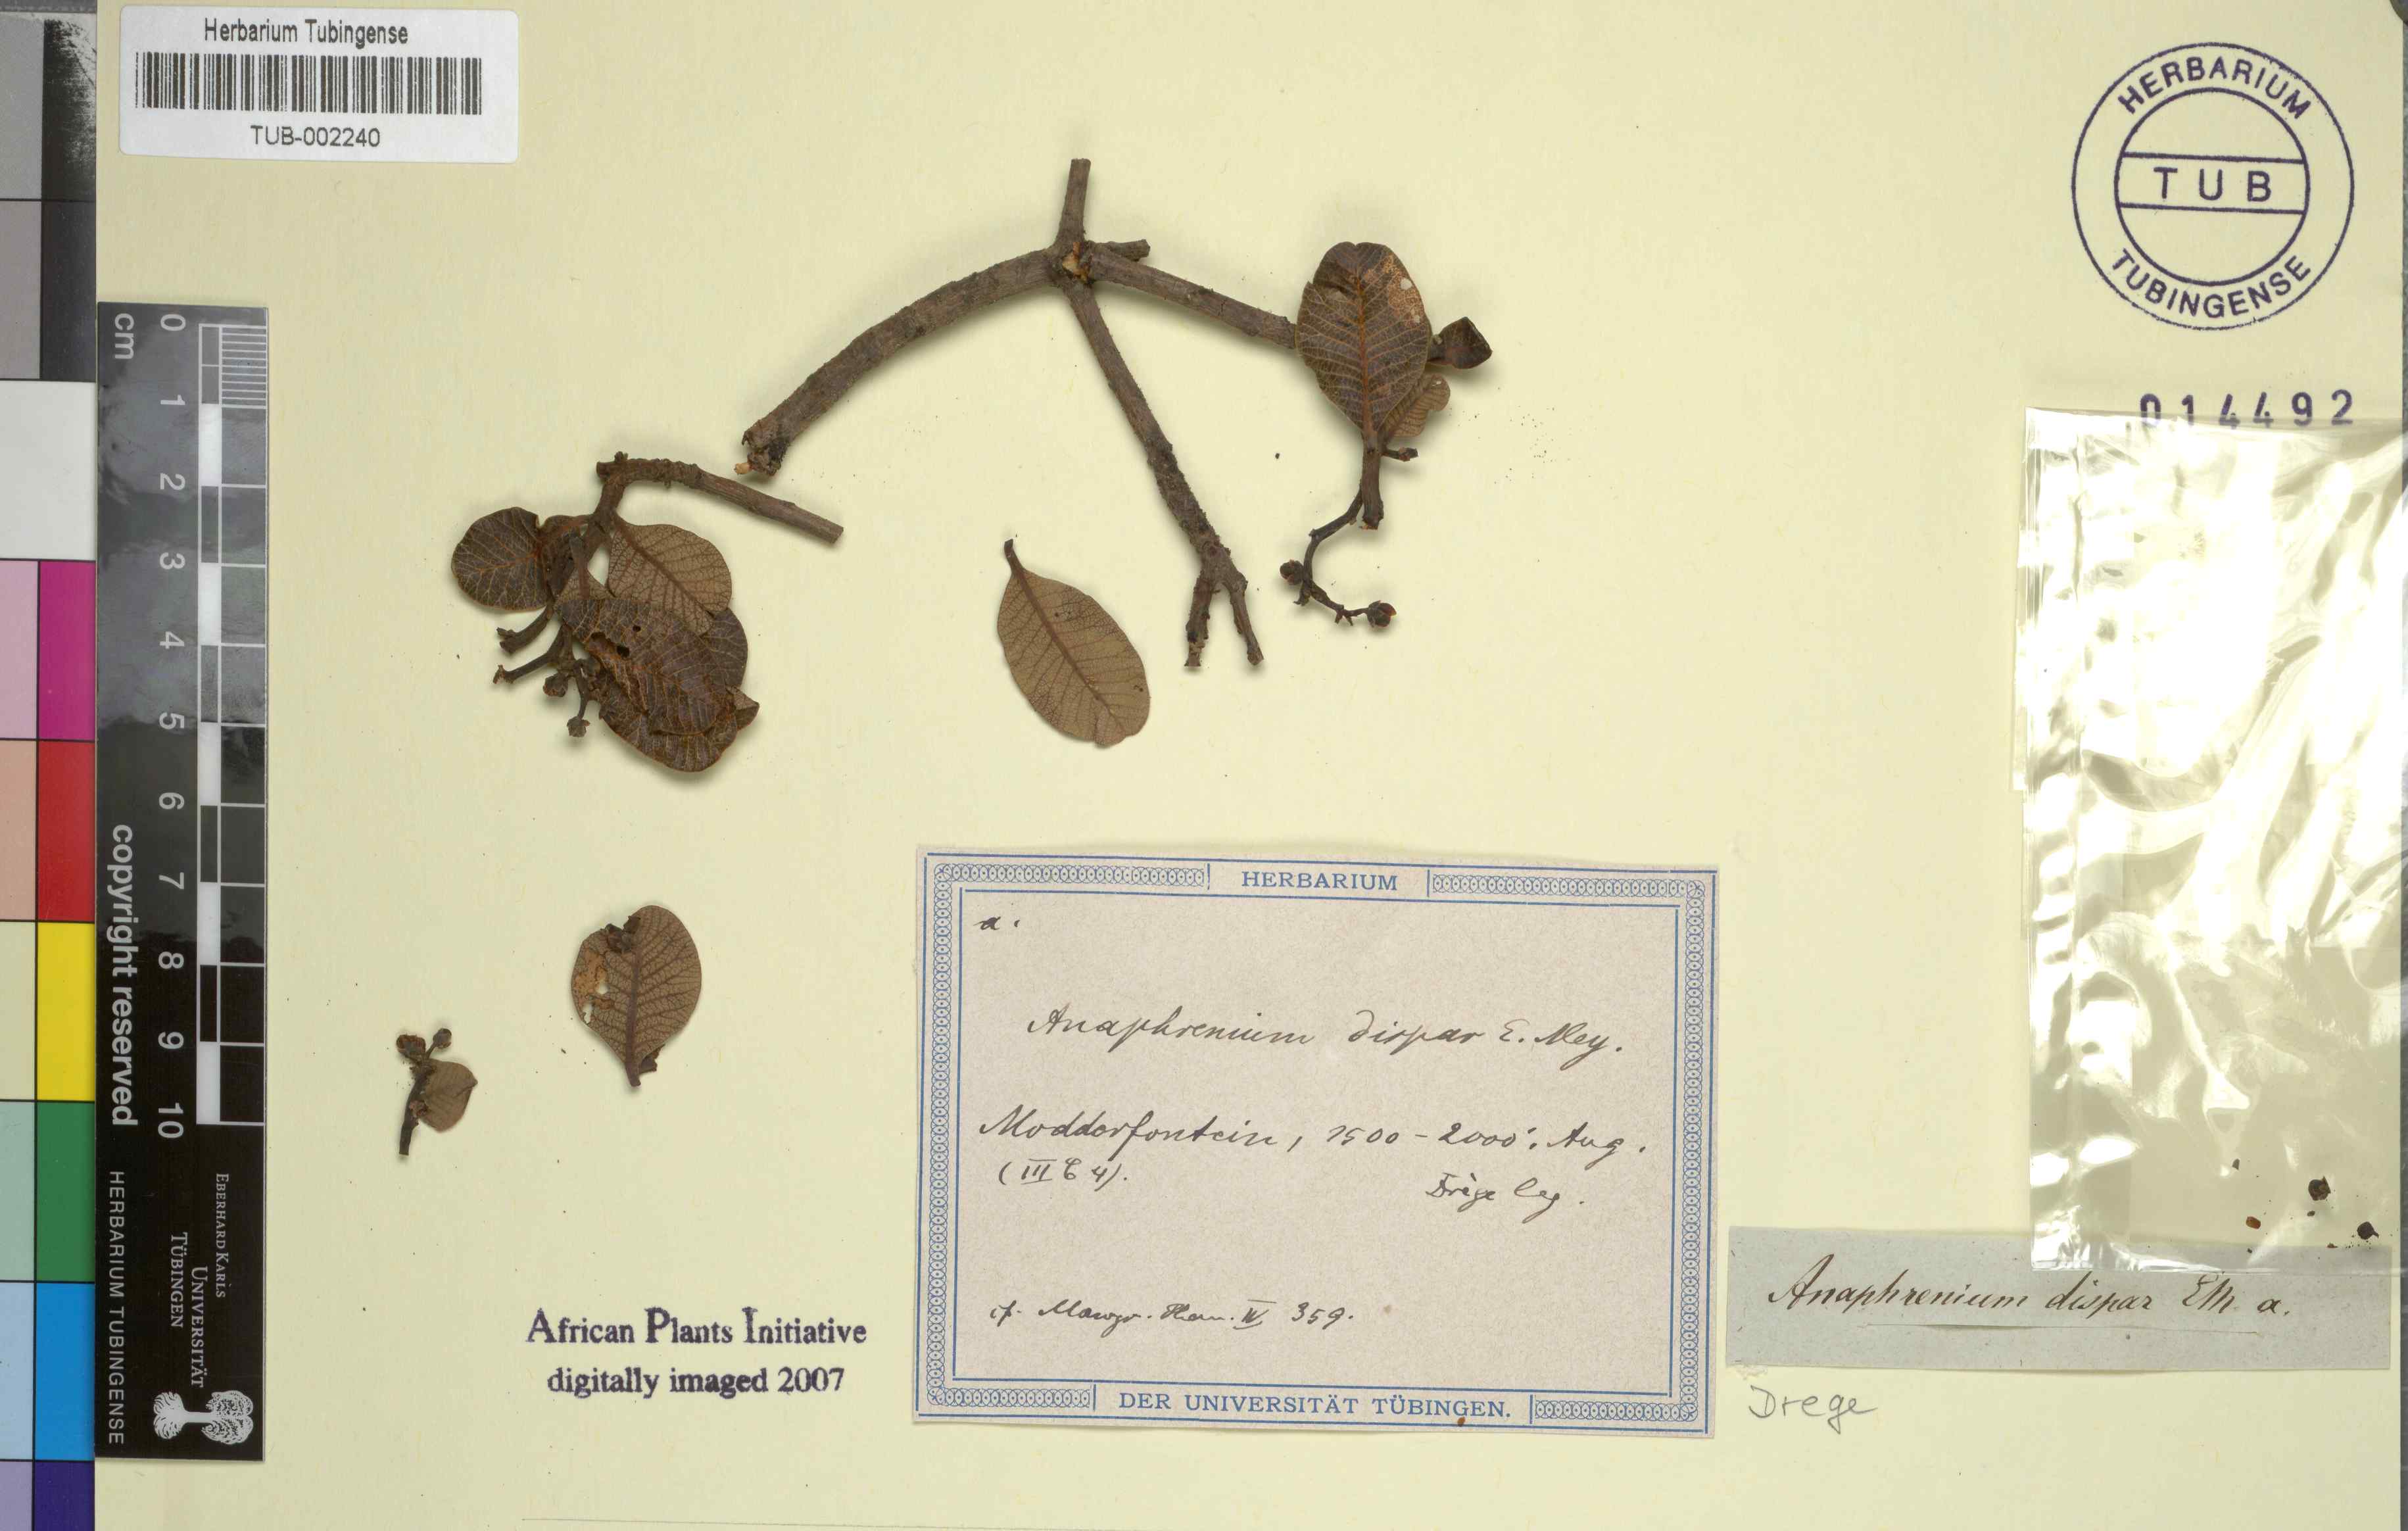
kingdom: Plantae
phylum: Tracheophyta
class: Magnoliopsida
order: Sapindales
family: Anacardiaceae
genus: Ozoroa
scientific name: Ozoroa dispar
